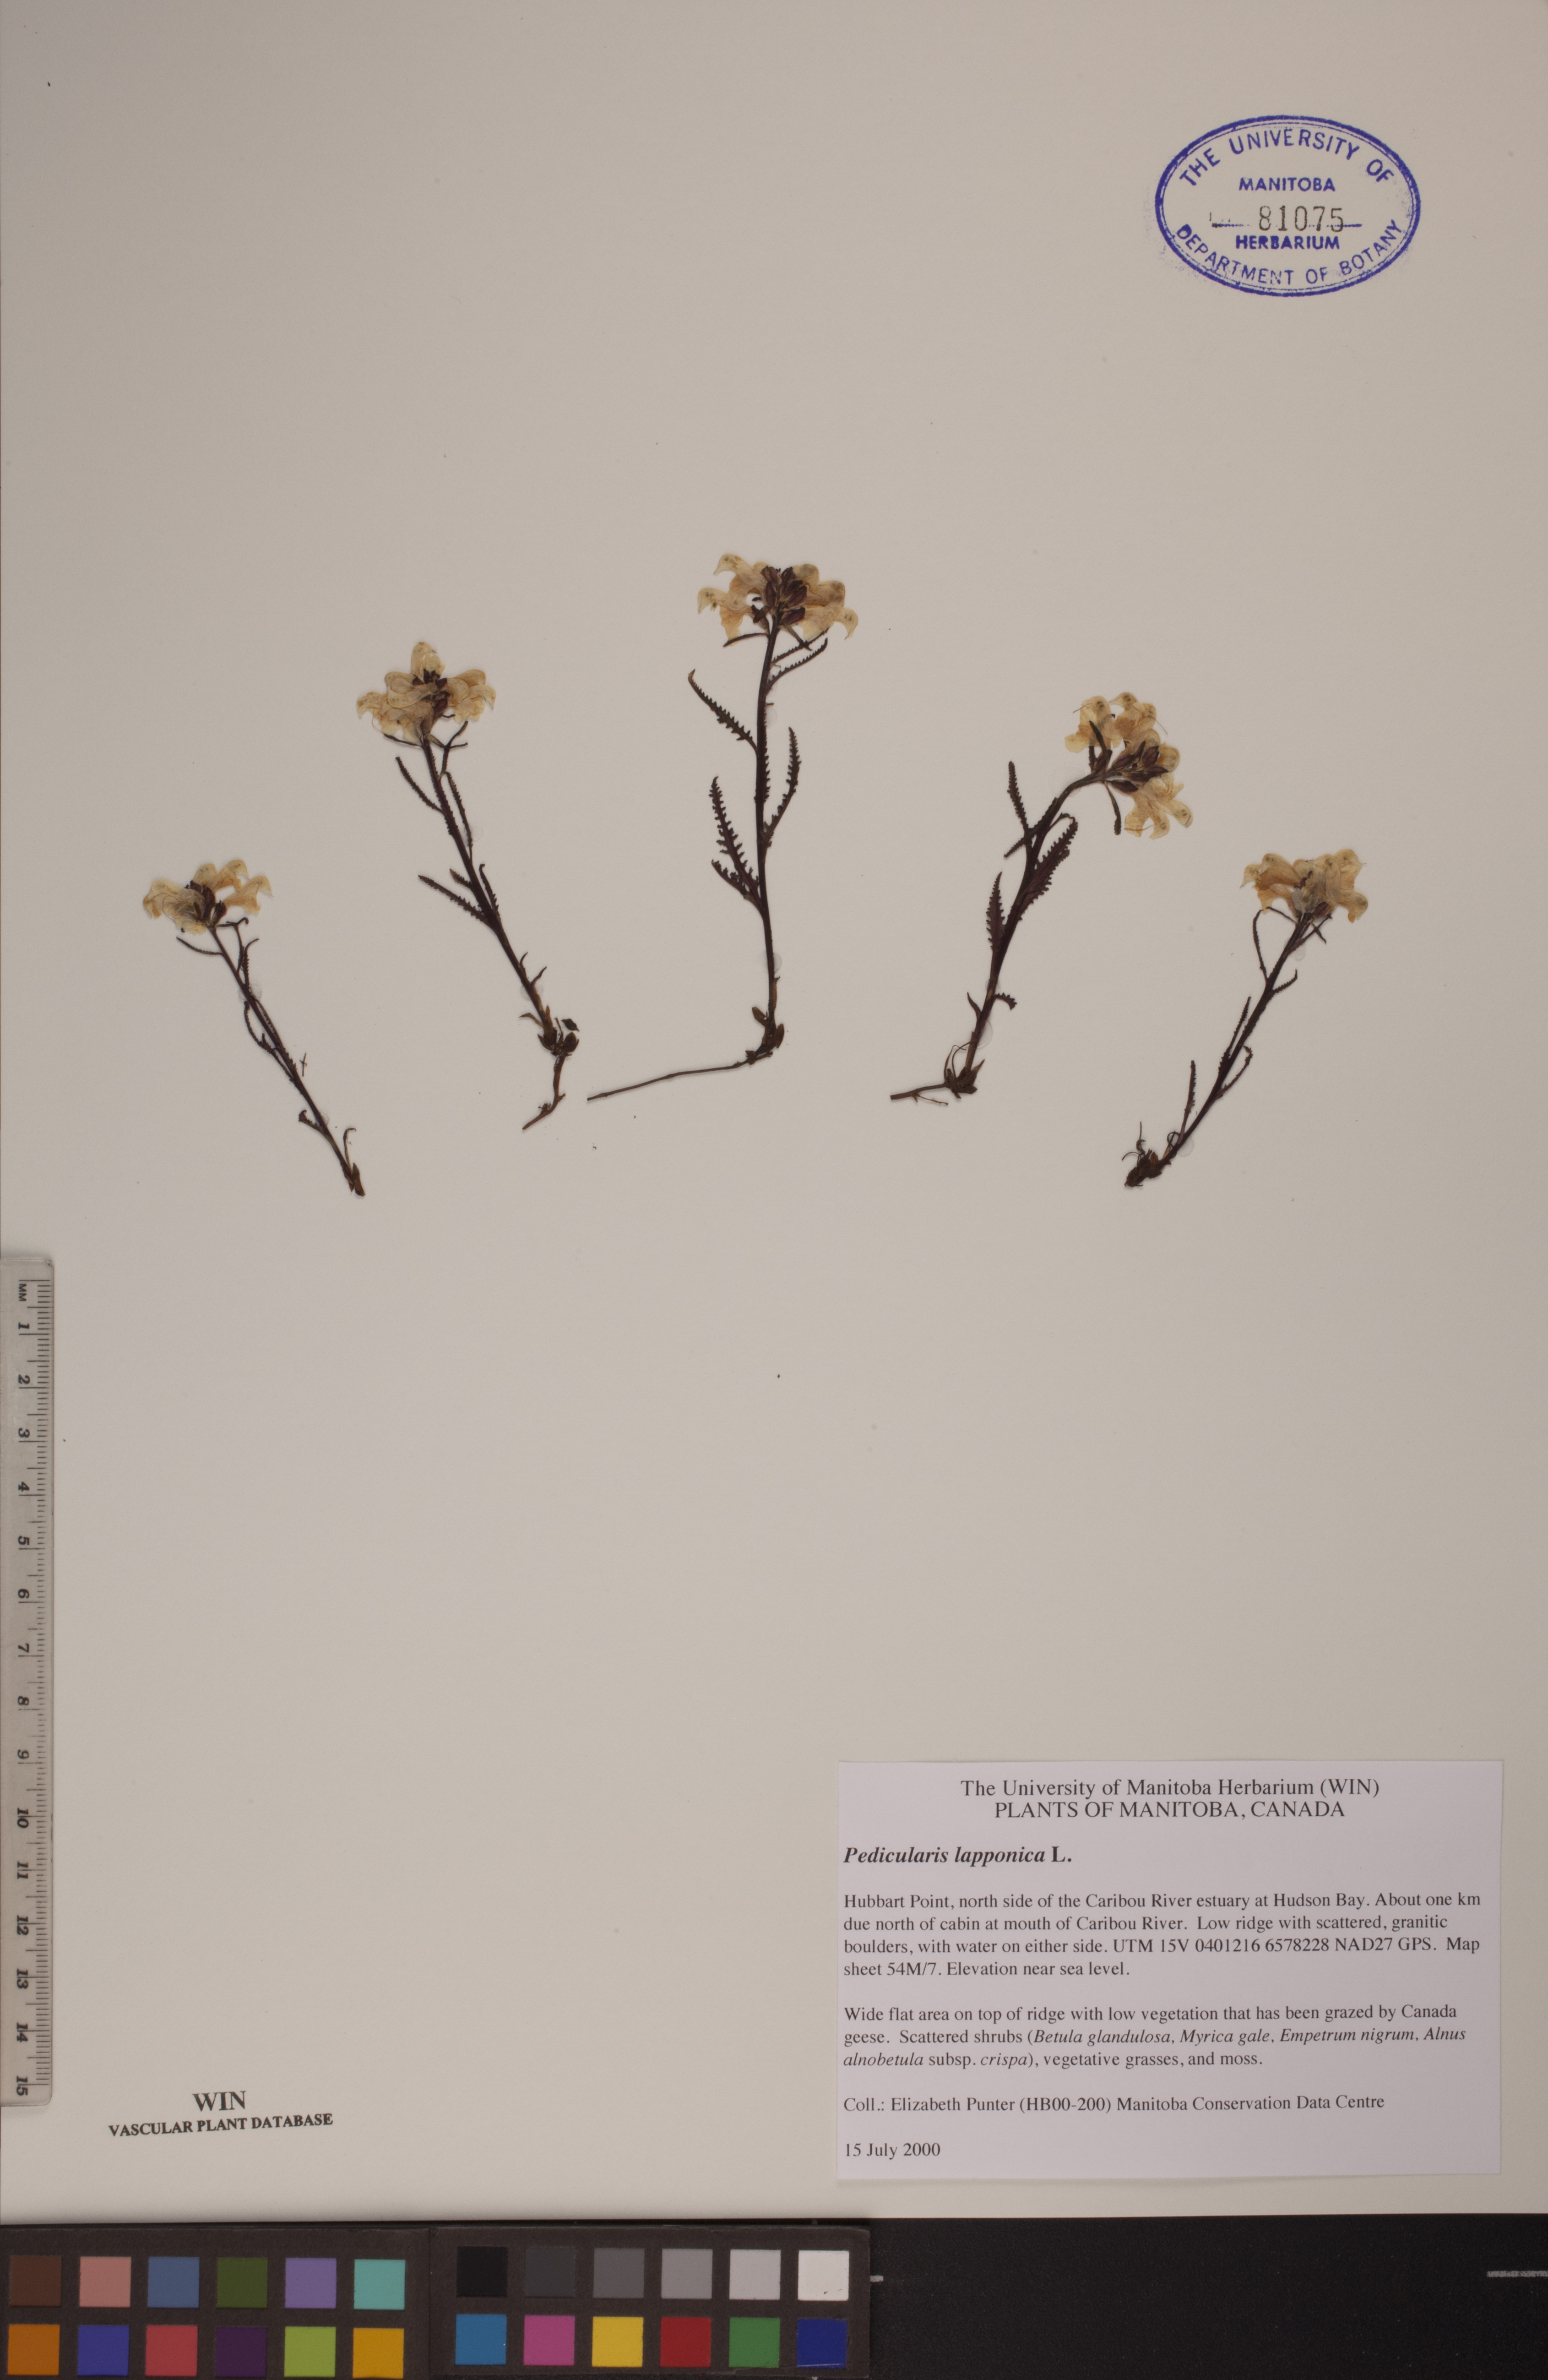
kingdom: Plantae
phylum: Tracheophyta
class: Magnoliopsida
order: Lamiales
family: Orobanchaceae
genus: Pedicularis
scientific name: Pedicularis lapponica
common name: Lapland lousewort
